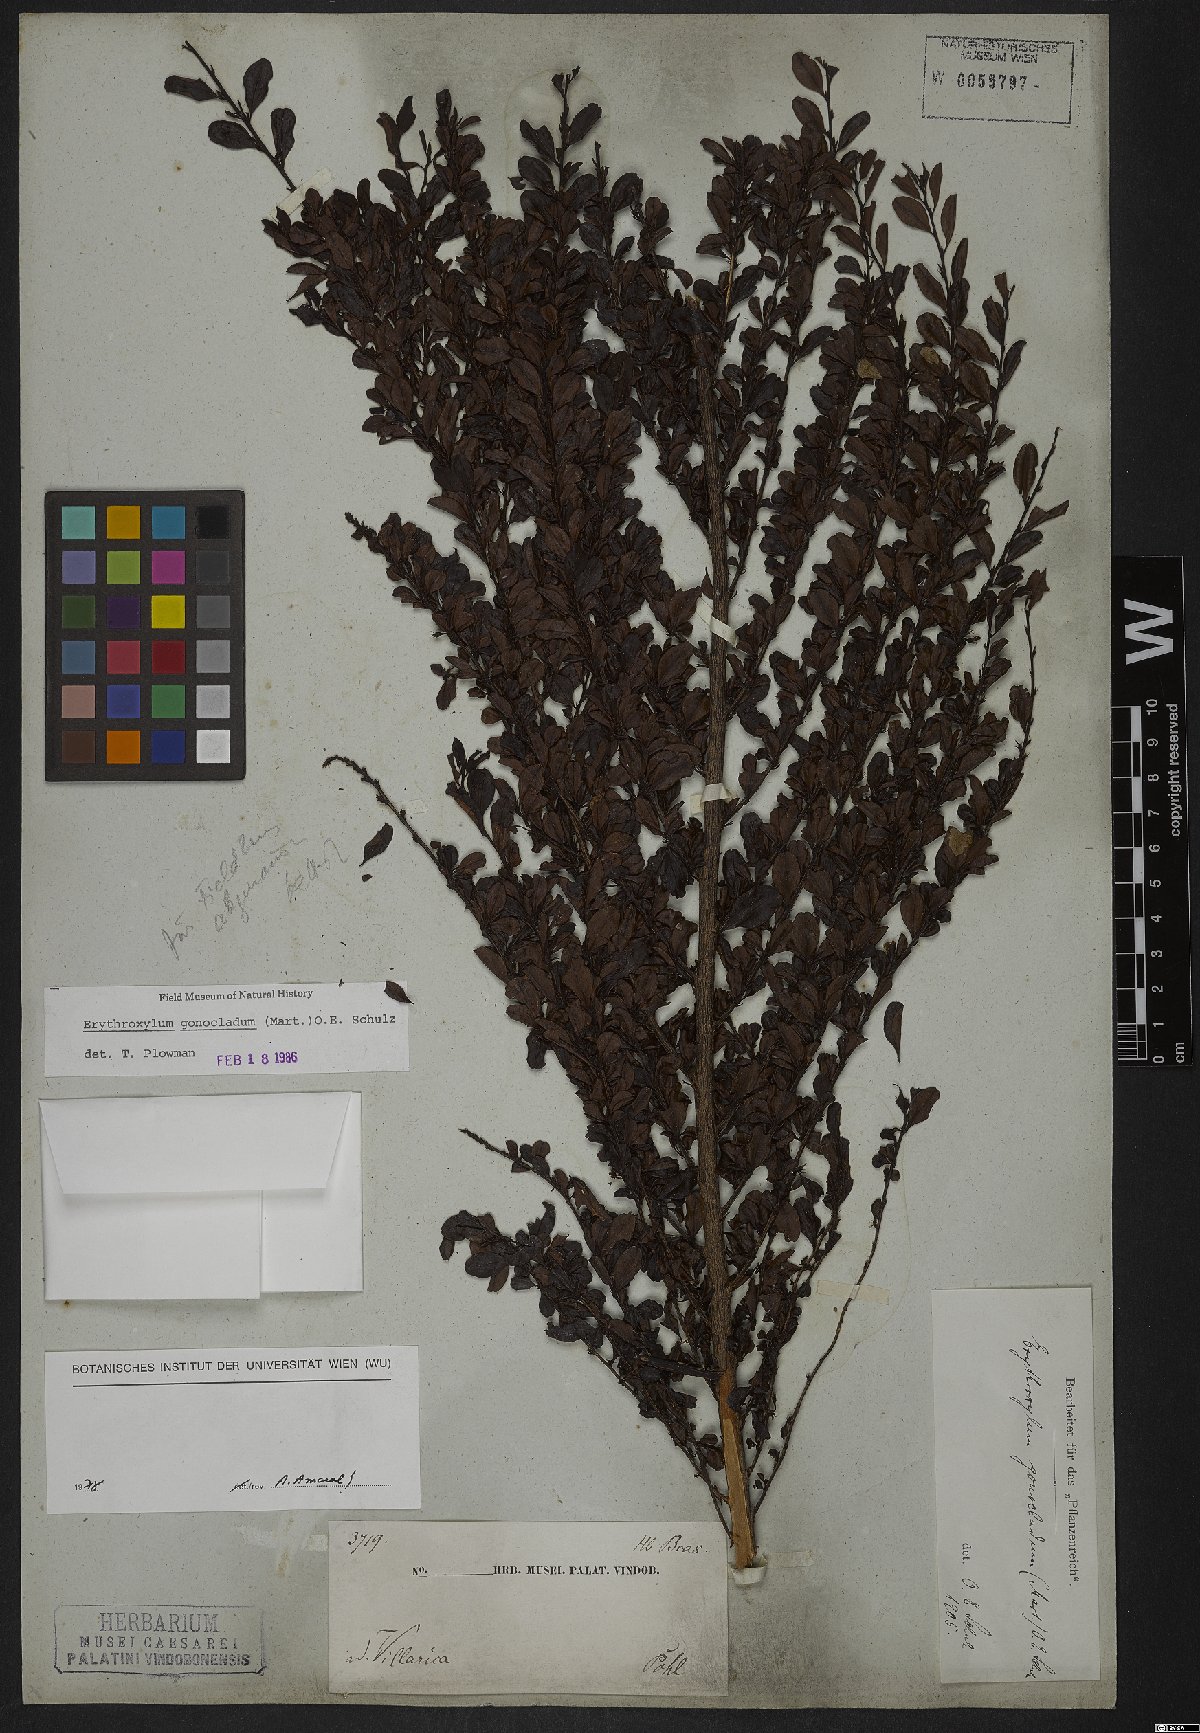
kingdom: Plantae
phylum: Tracheophyta
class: Magnoliopsida
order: Sapindales
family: Sapindaceae
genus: Sapindus
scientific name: Sapindus saponaria
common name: Wingleaf soapberry
